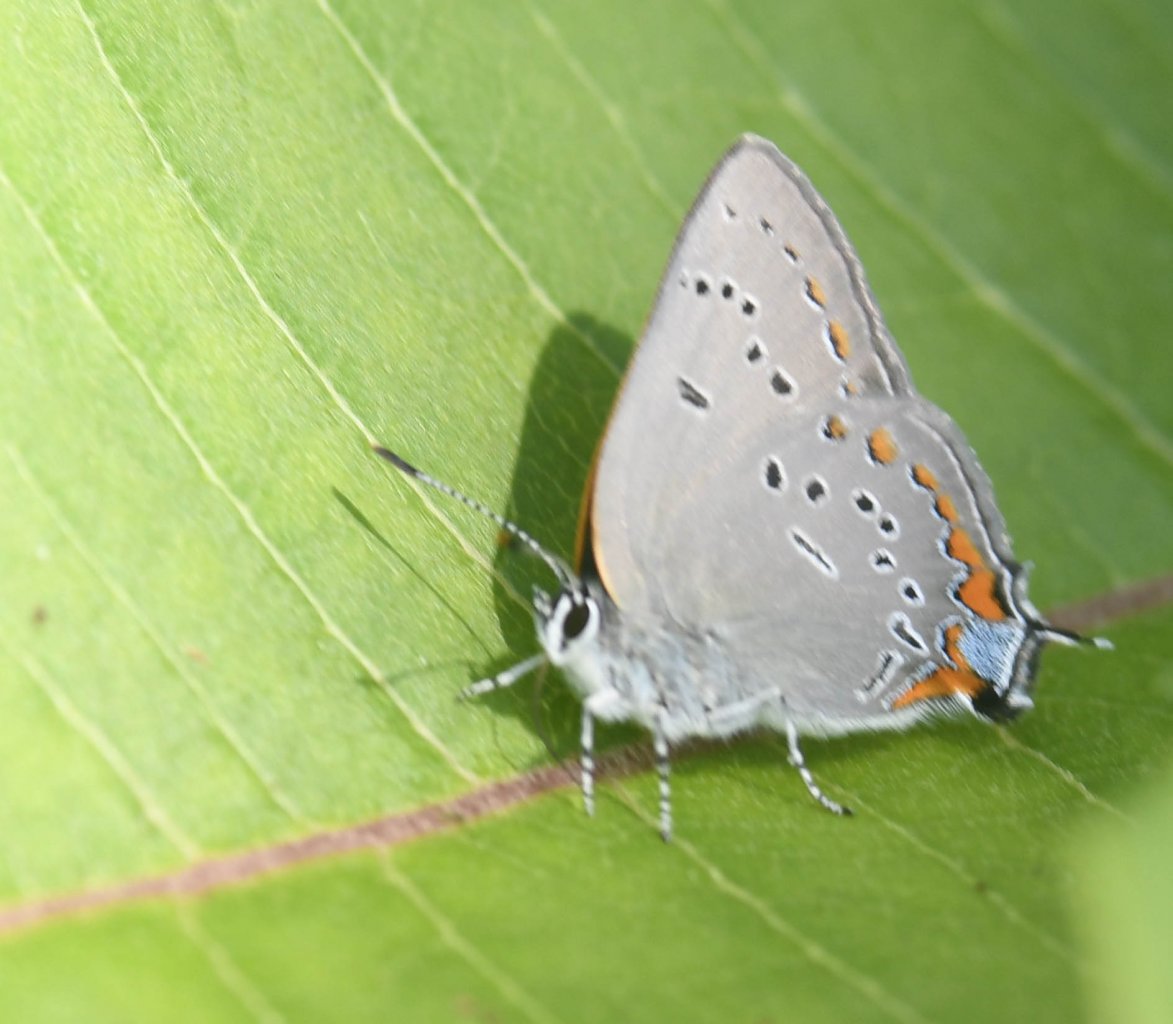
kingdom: Animalia
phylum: Arthropoda
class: Insecta
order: Lepidoptera
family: Lycaenidae
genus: Strymon
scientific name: Strymon acadica
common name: Acadian Hairstreak
